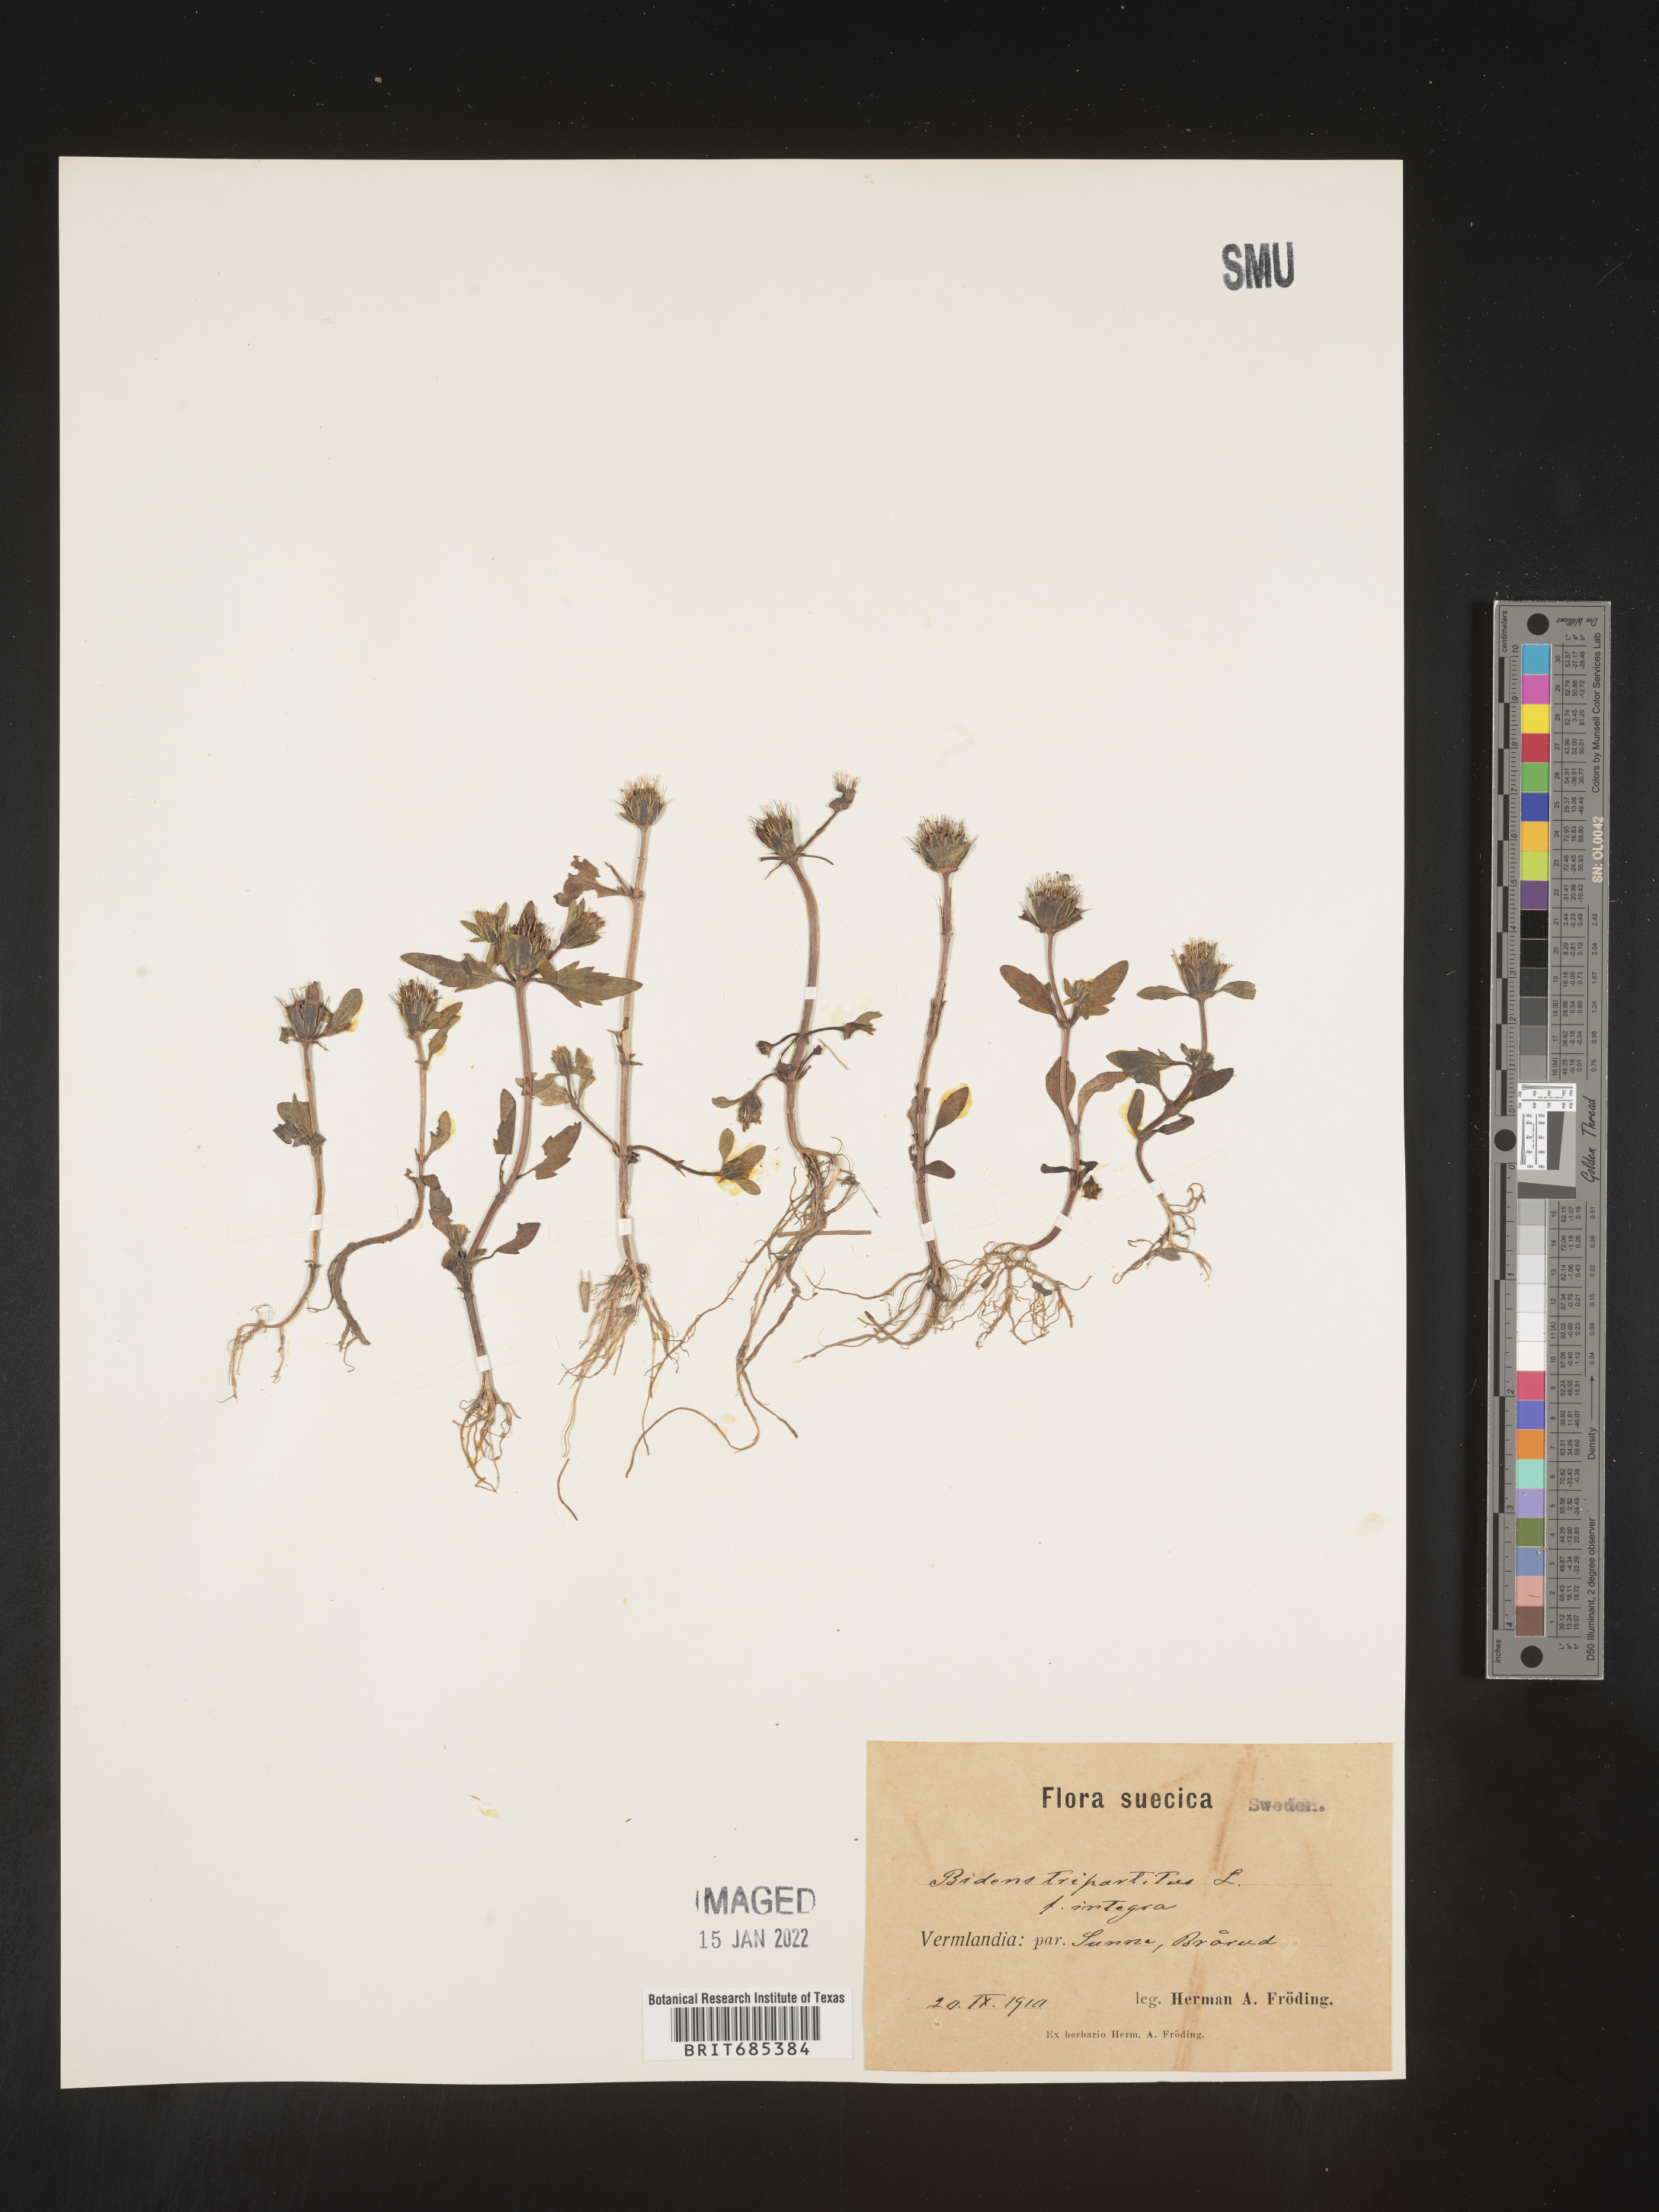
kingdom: Plantae
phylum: Tracheophyta
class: Magnoliopsida
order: Asterales
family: Asteraceae
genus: Bidens
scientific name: Bidens
